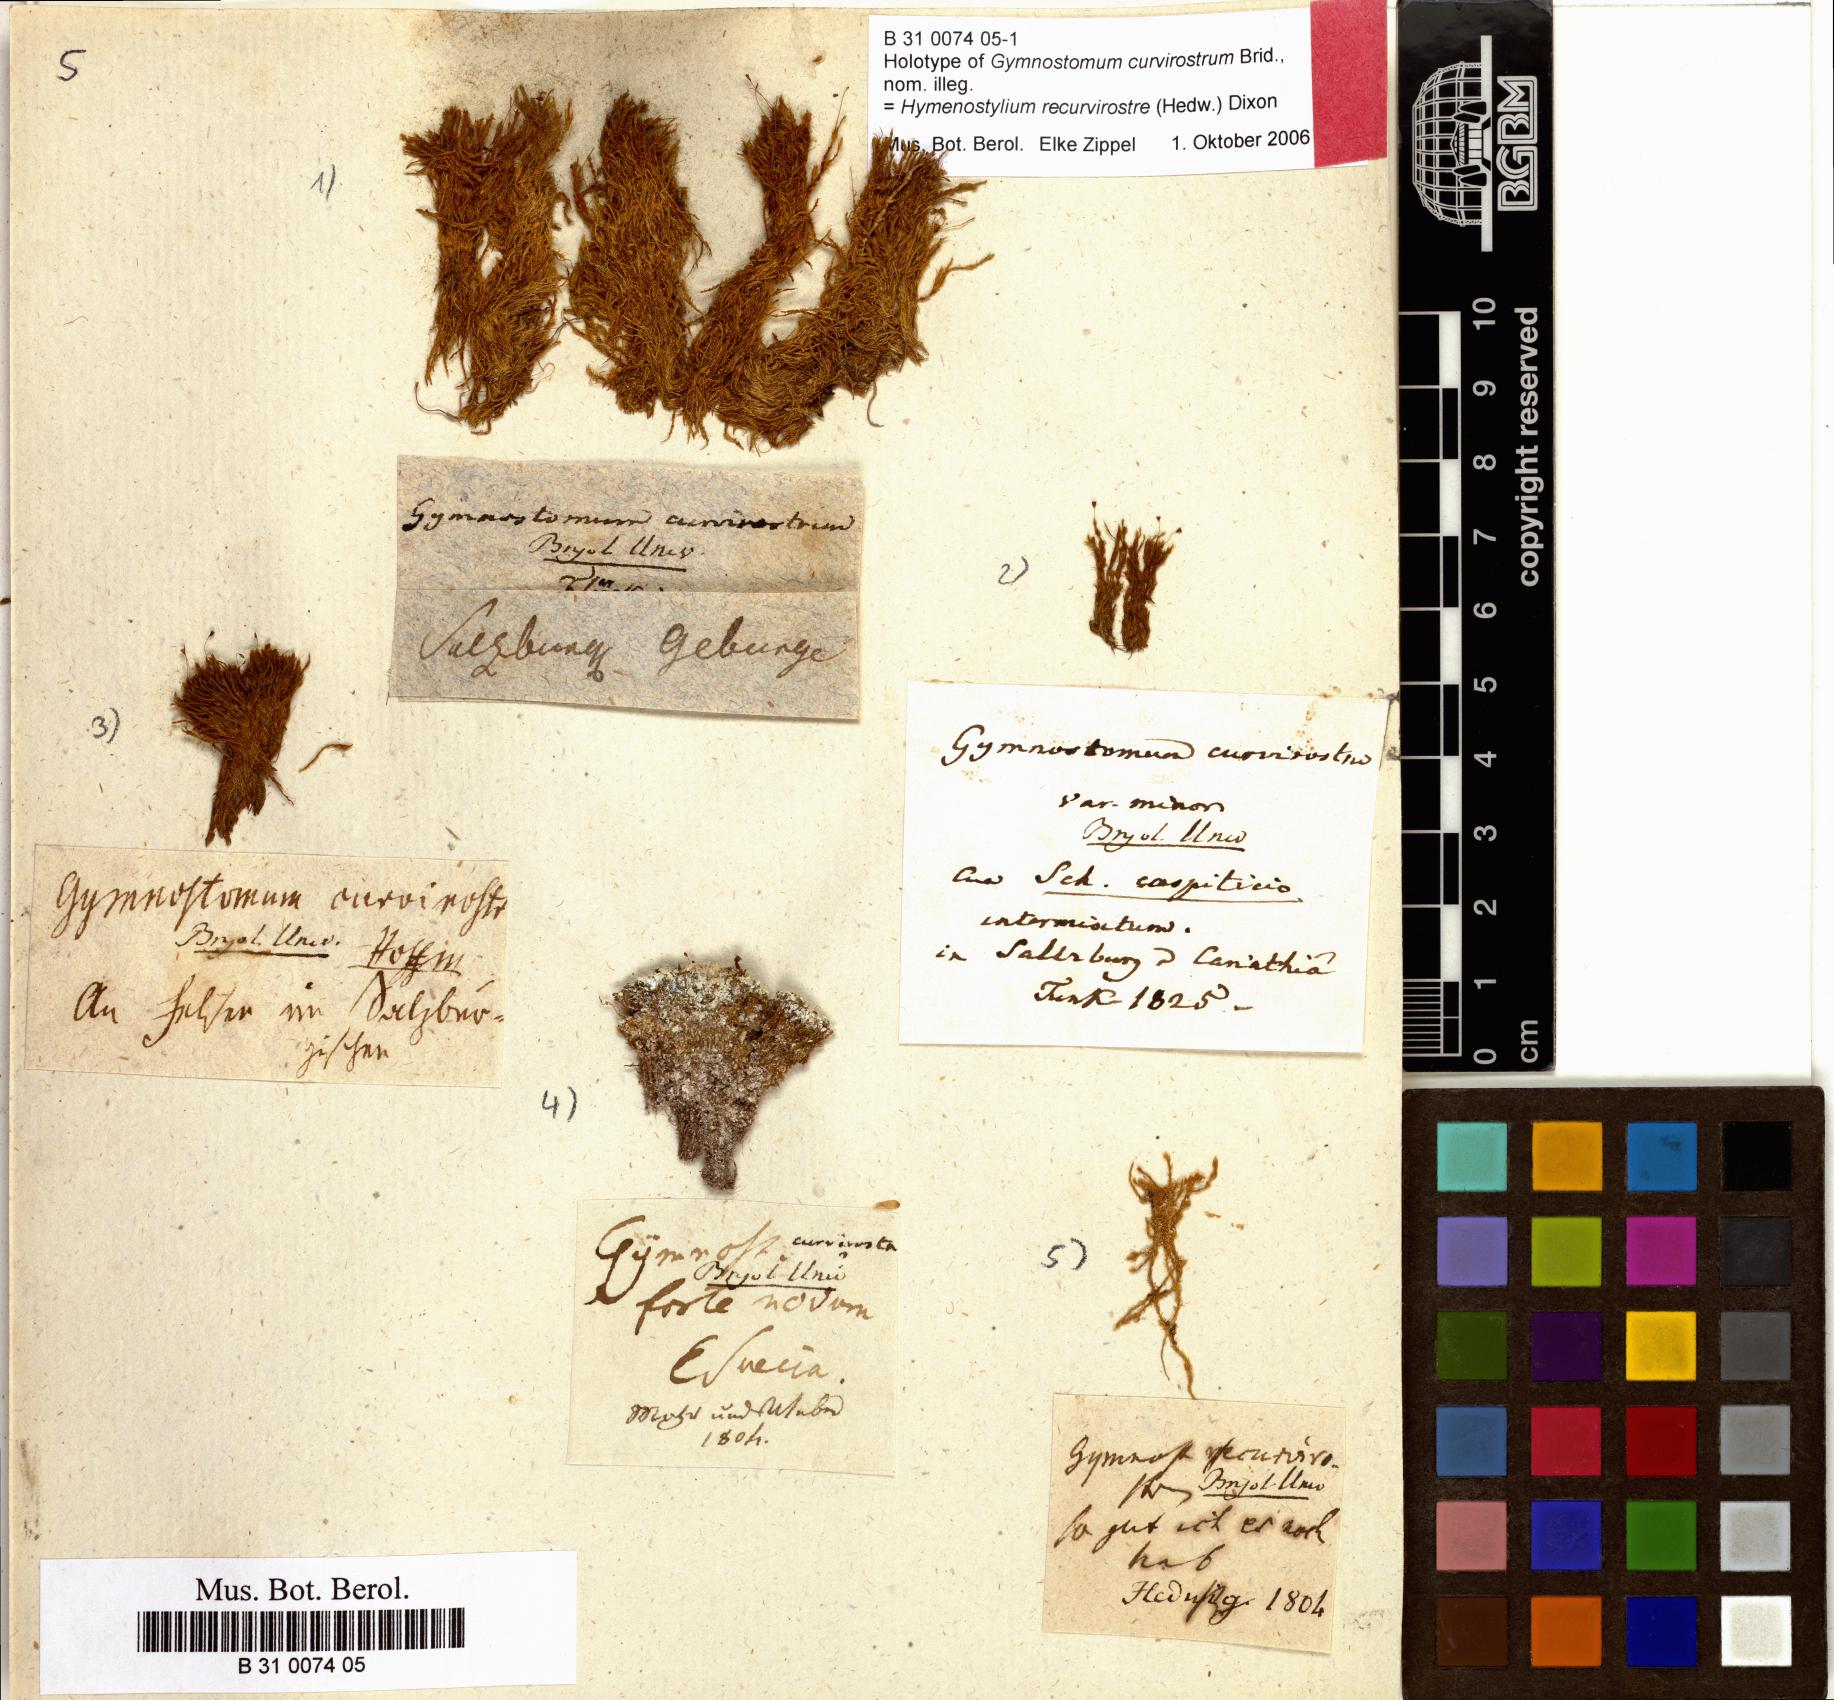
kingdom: Plantae
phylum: Bryophyta
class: Bryopsida
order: Pottiales
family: Pottiaceae
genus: Hymenostylium
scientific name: Hymenostylium recurvirostrum
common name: Hook-beak tufa-moss
